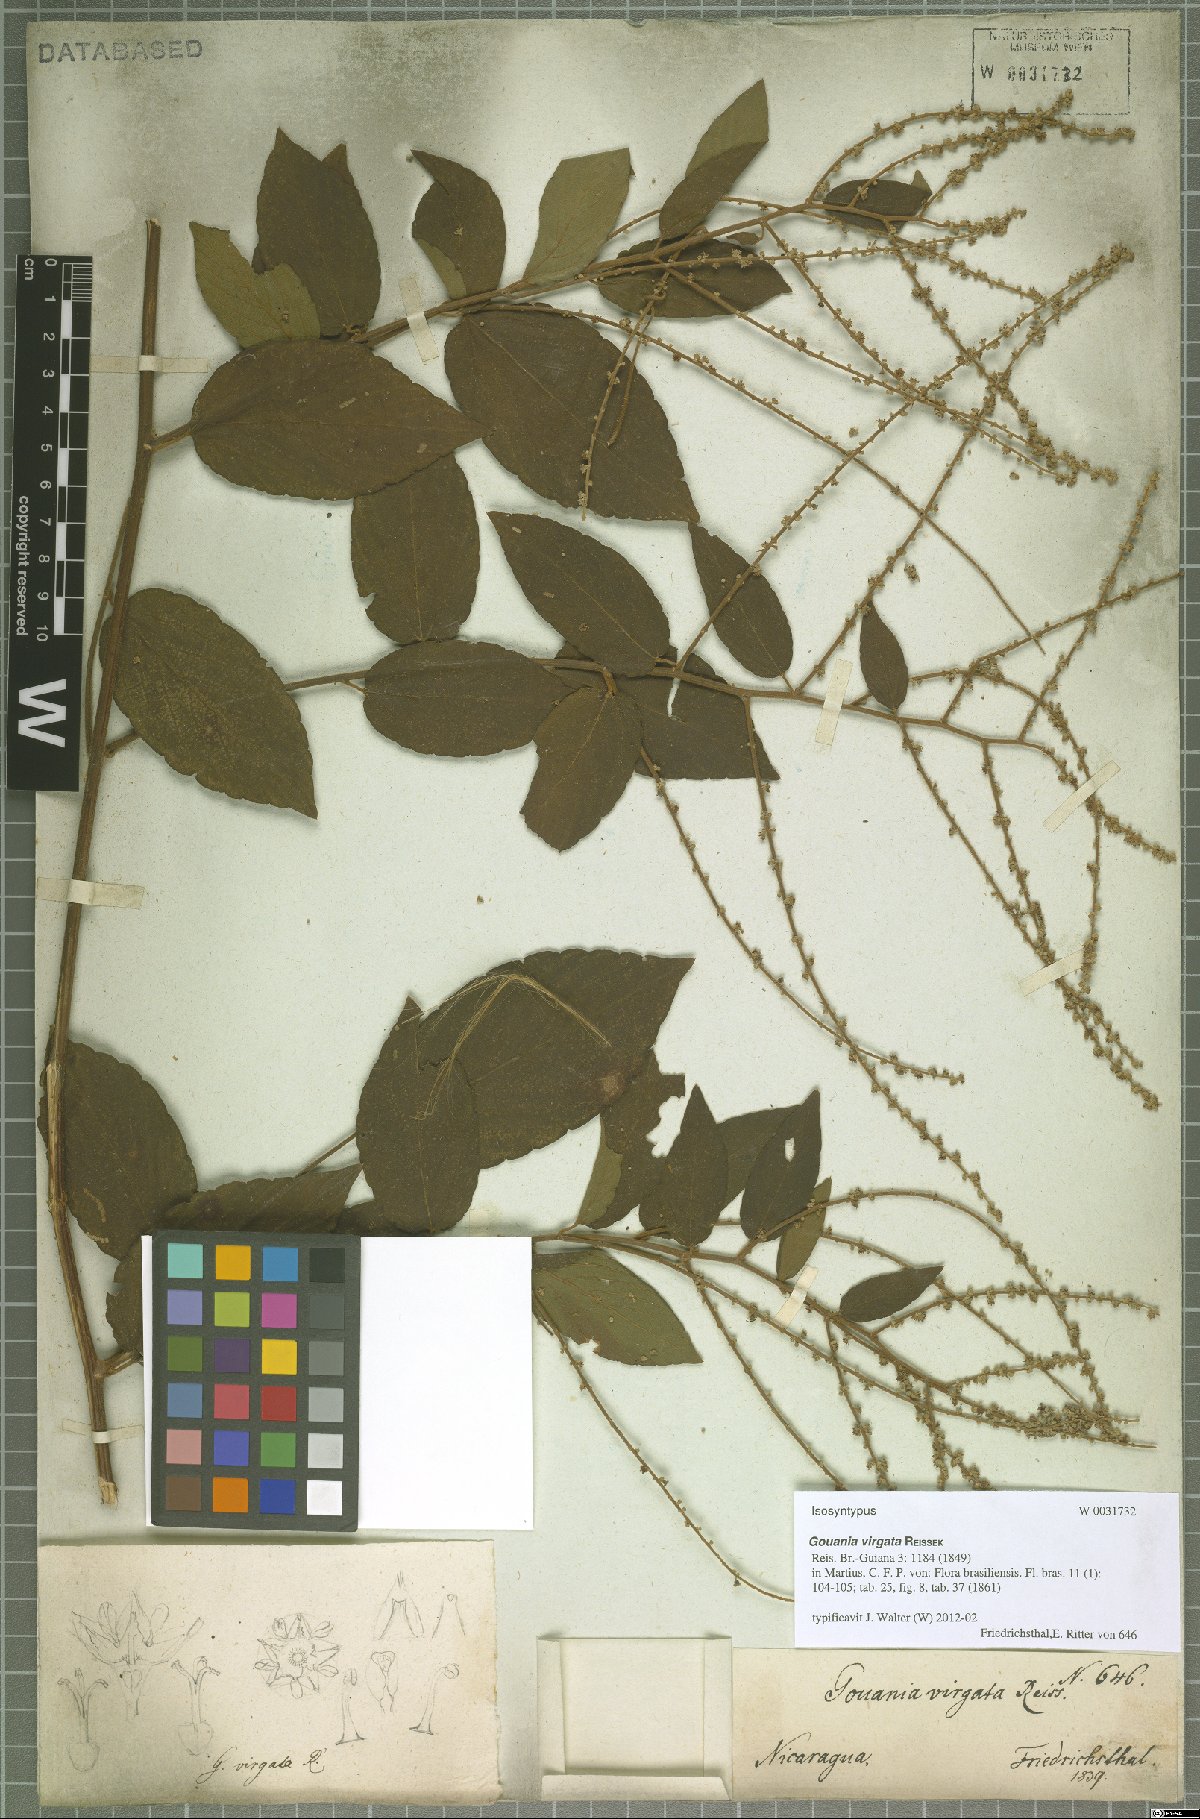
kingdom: Plantae
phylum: Tracheophyta
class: Magnoliopsida
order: Rosales
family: Rhamnaceae
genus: Gouania
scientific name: Gouania lupuloides
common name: Chewstick
